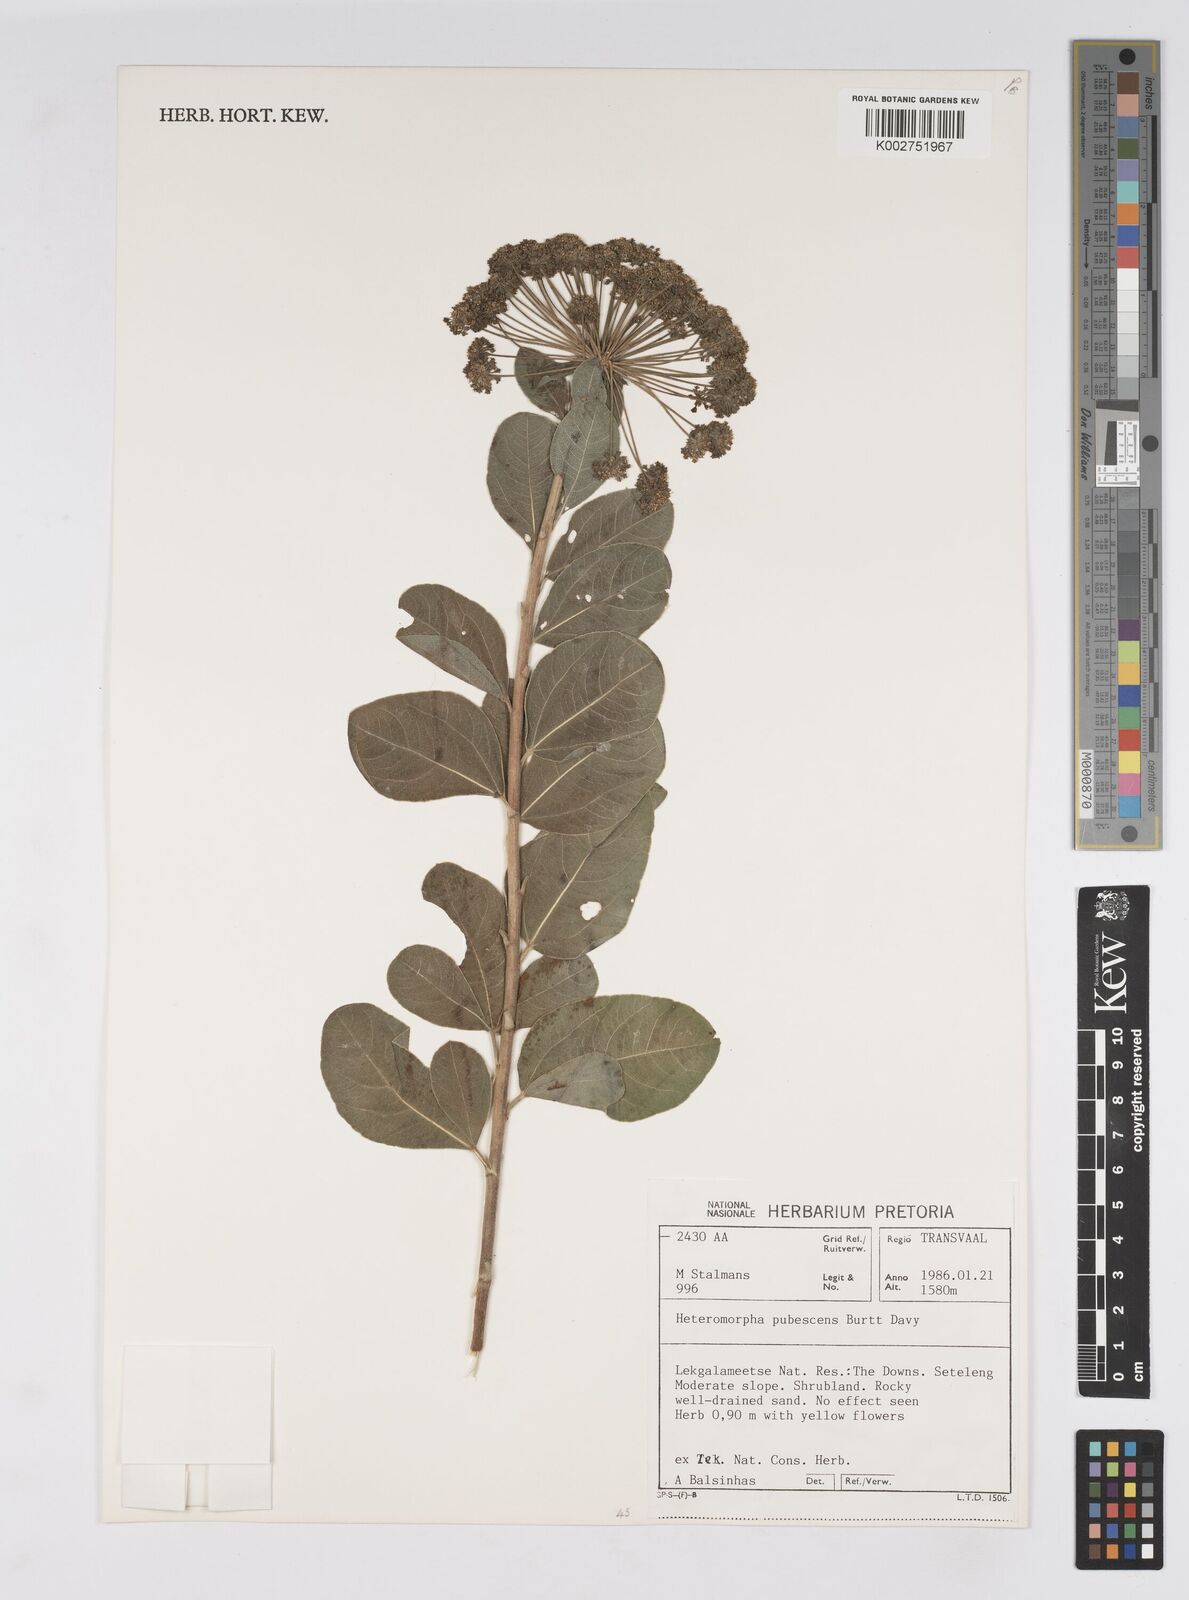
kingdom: Plantae
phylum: Tracheophyta
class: Magnoliopsida
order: Apiales
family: Apiaceae
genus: Heteromorpha
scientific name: Heteromorpha pubescens
